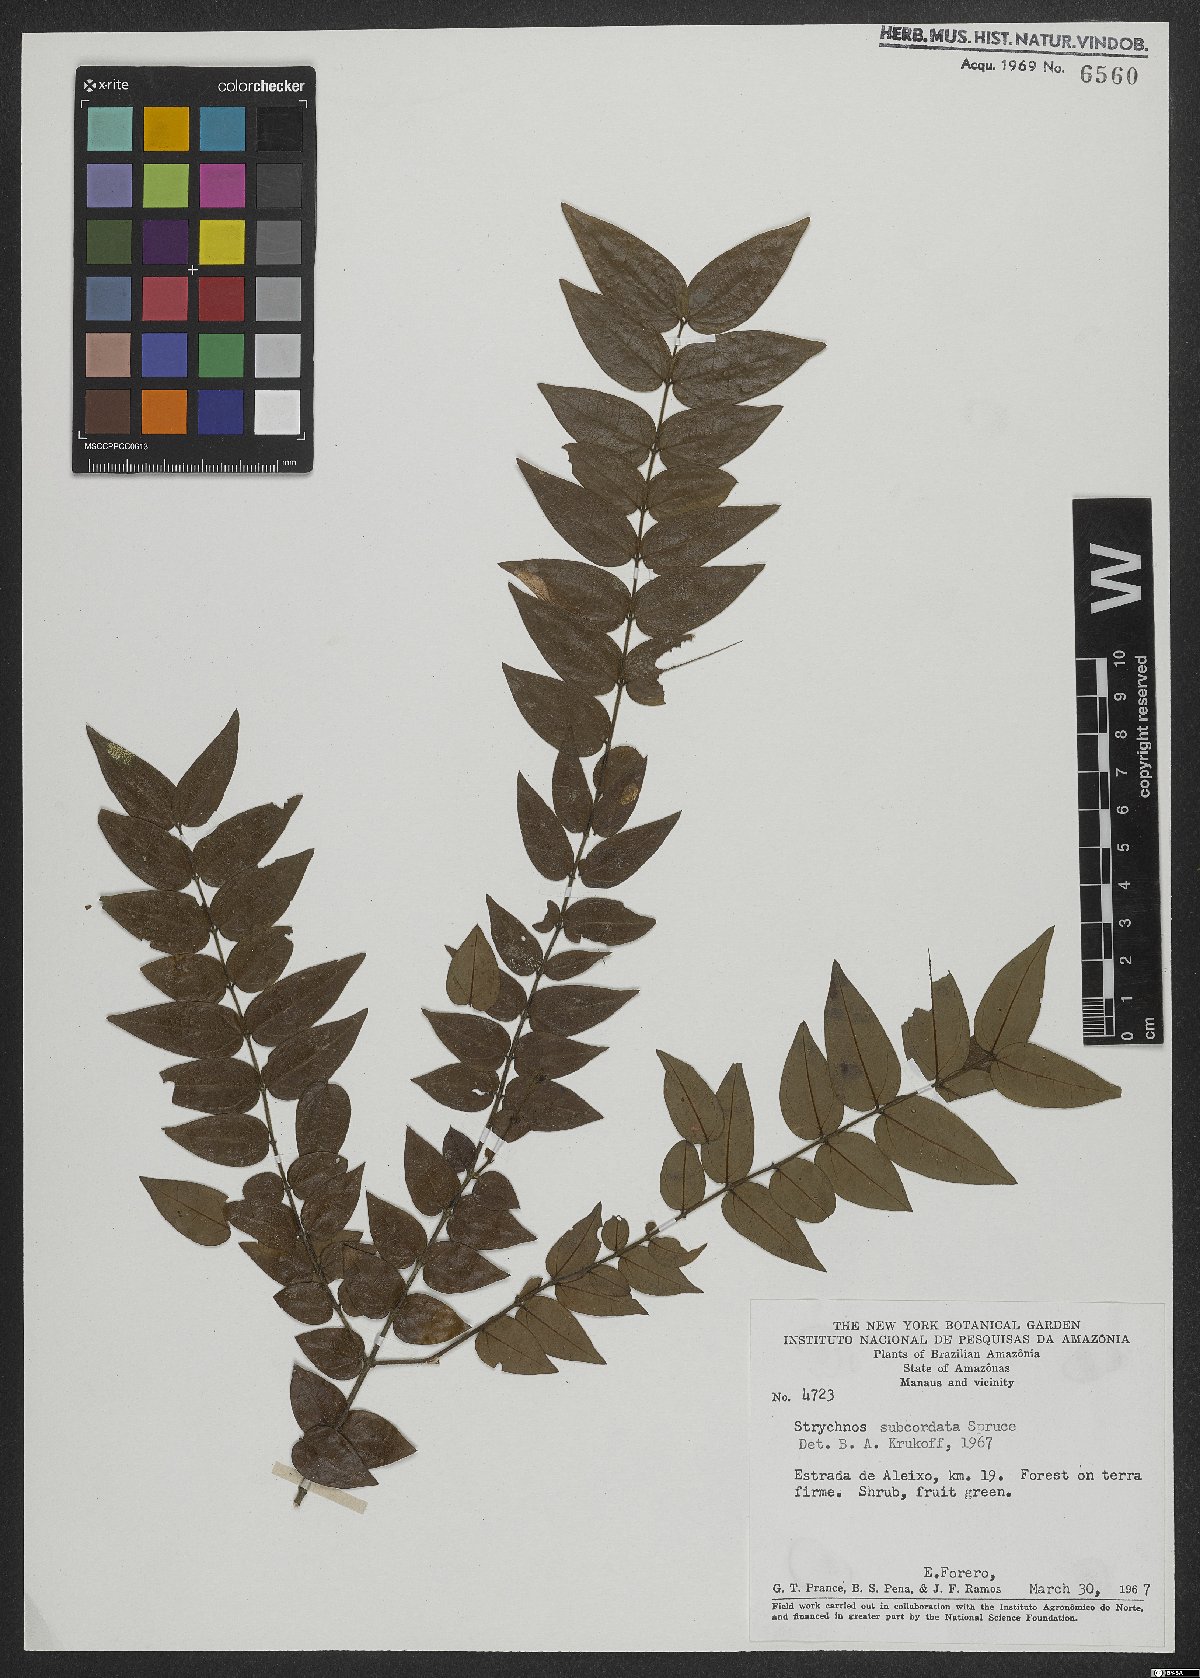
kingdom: Plantae
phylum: Tracheophyta
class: Magnoliopsida
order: Gentianales
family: Loganiaceae
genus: Strychnos
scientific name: Strychnos subcordata
